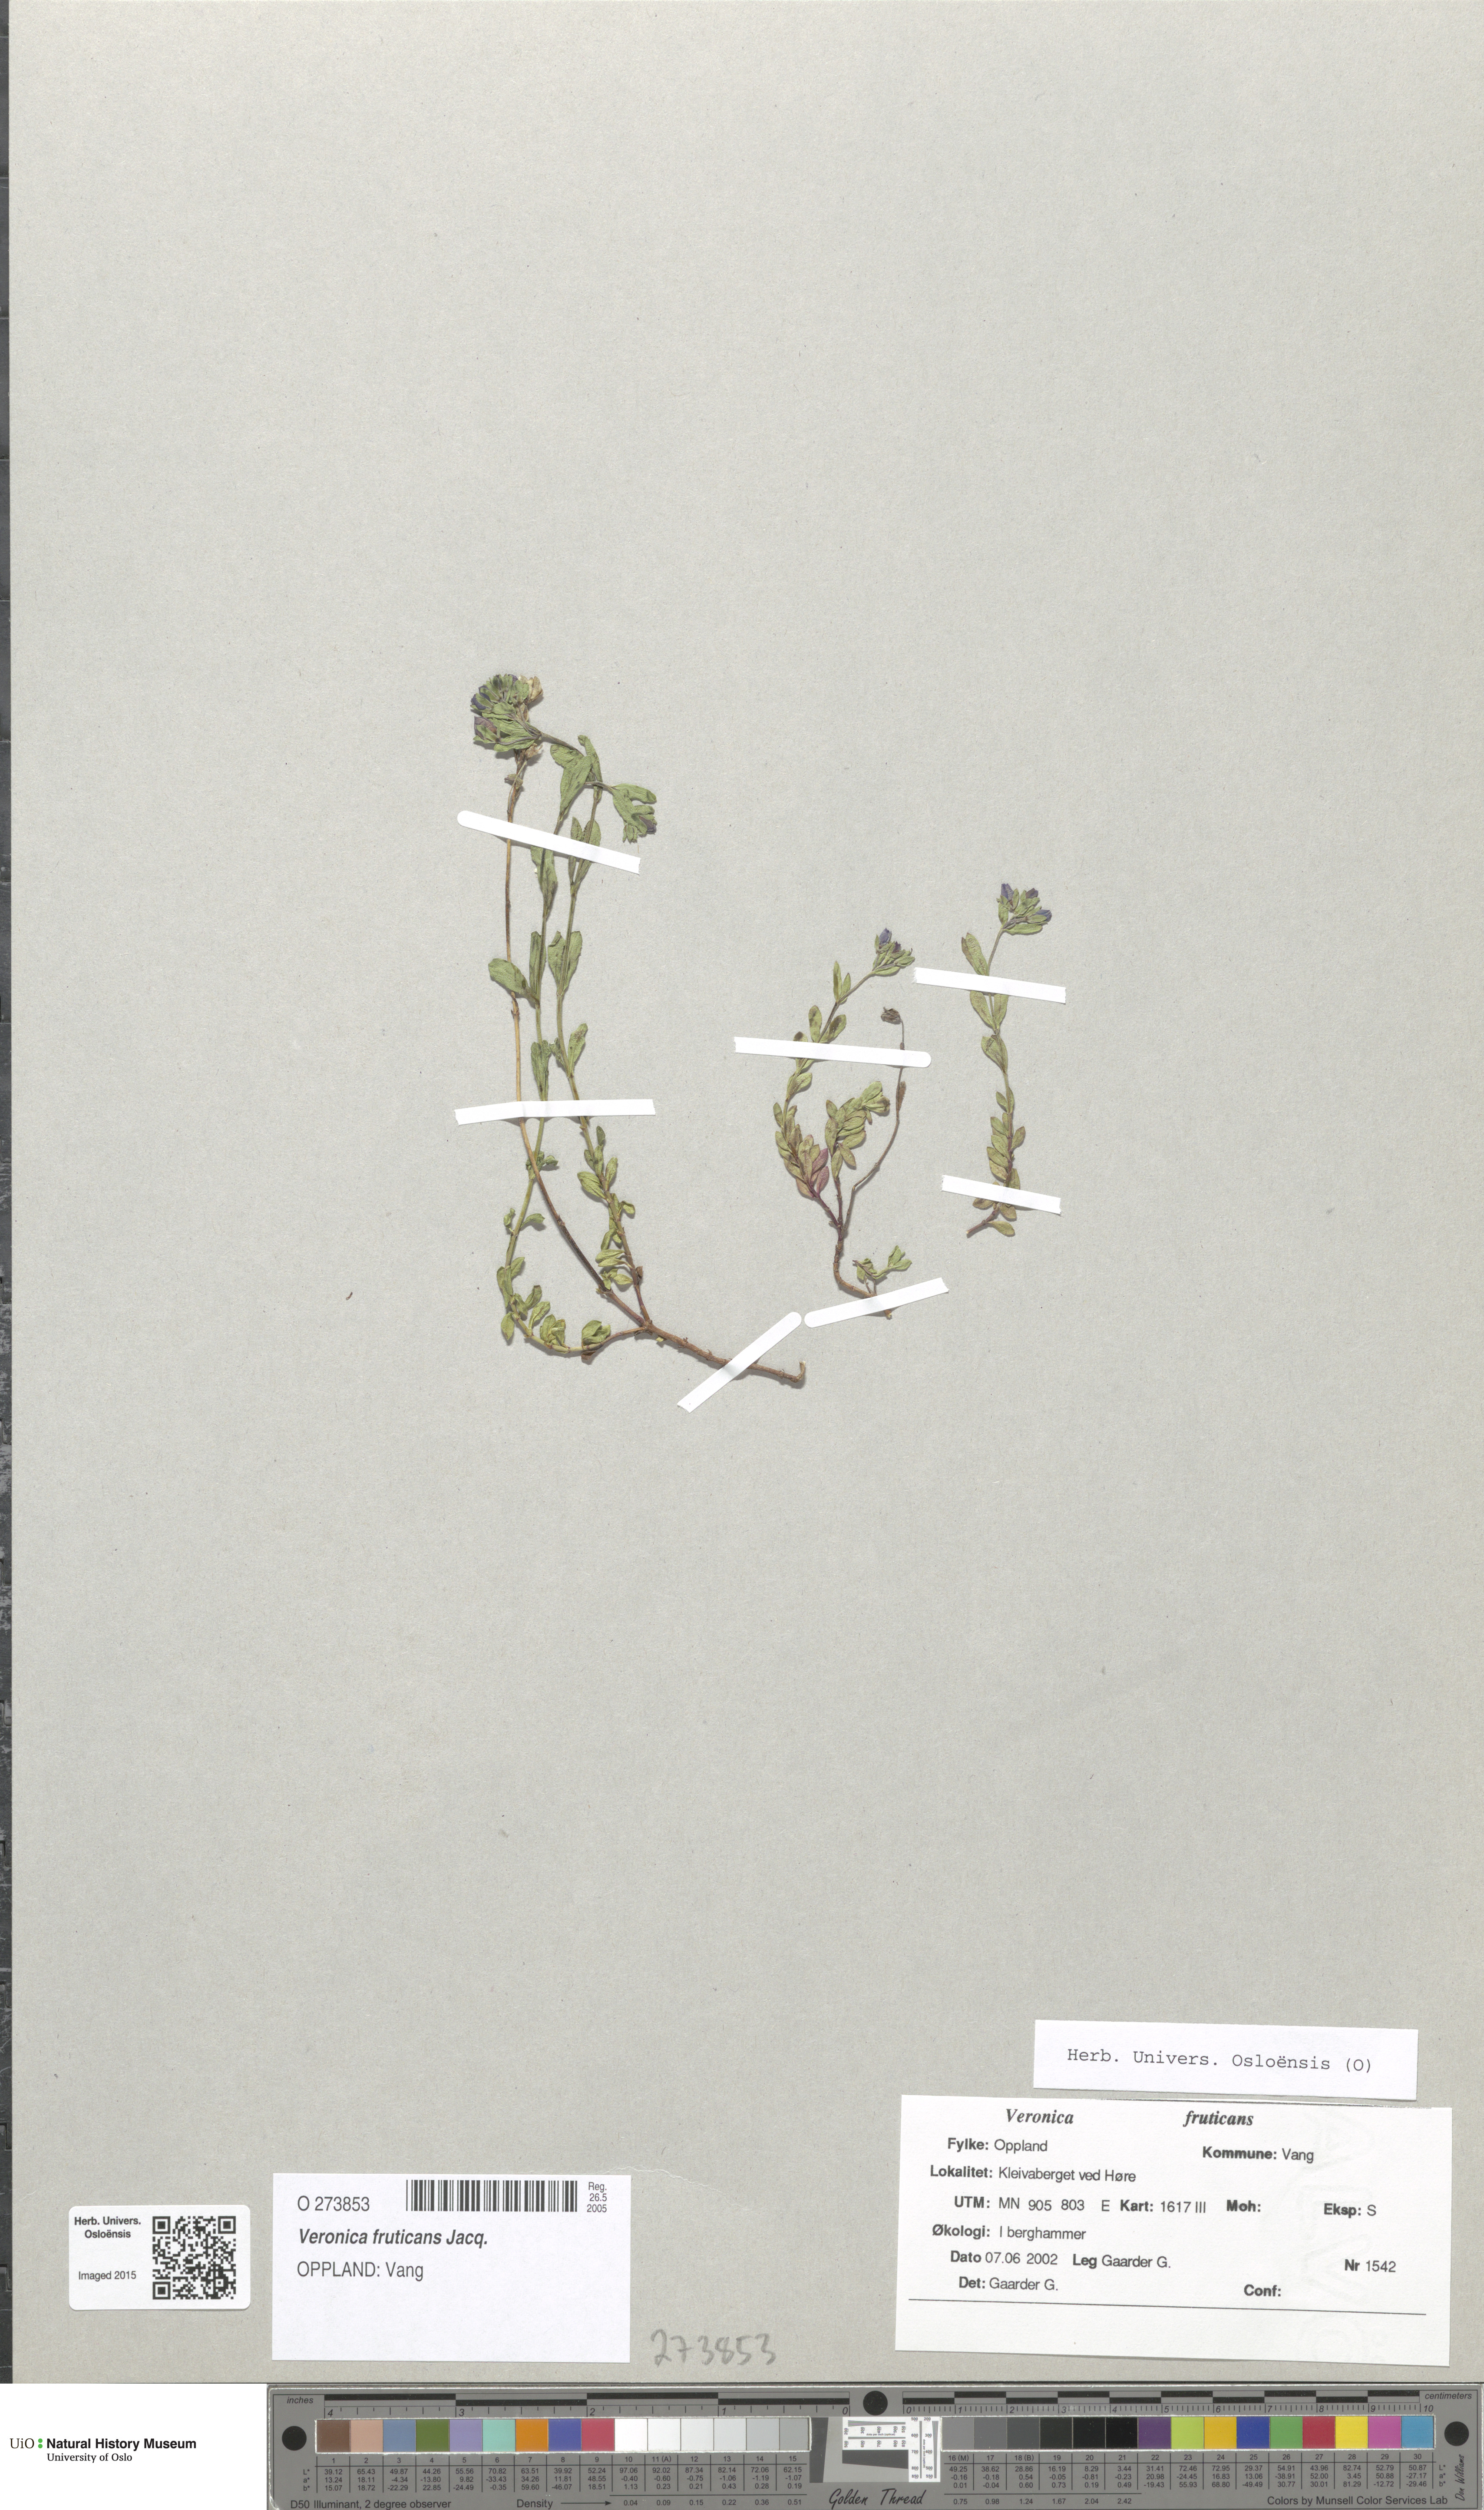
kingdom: Plantae
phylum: Tracheophyta
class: Magnoliopsida
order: Lamiales
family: Plantaginaceae
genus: Veronica
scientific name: Veronica fruticans
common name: Rock speedwell
